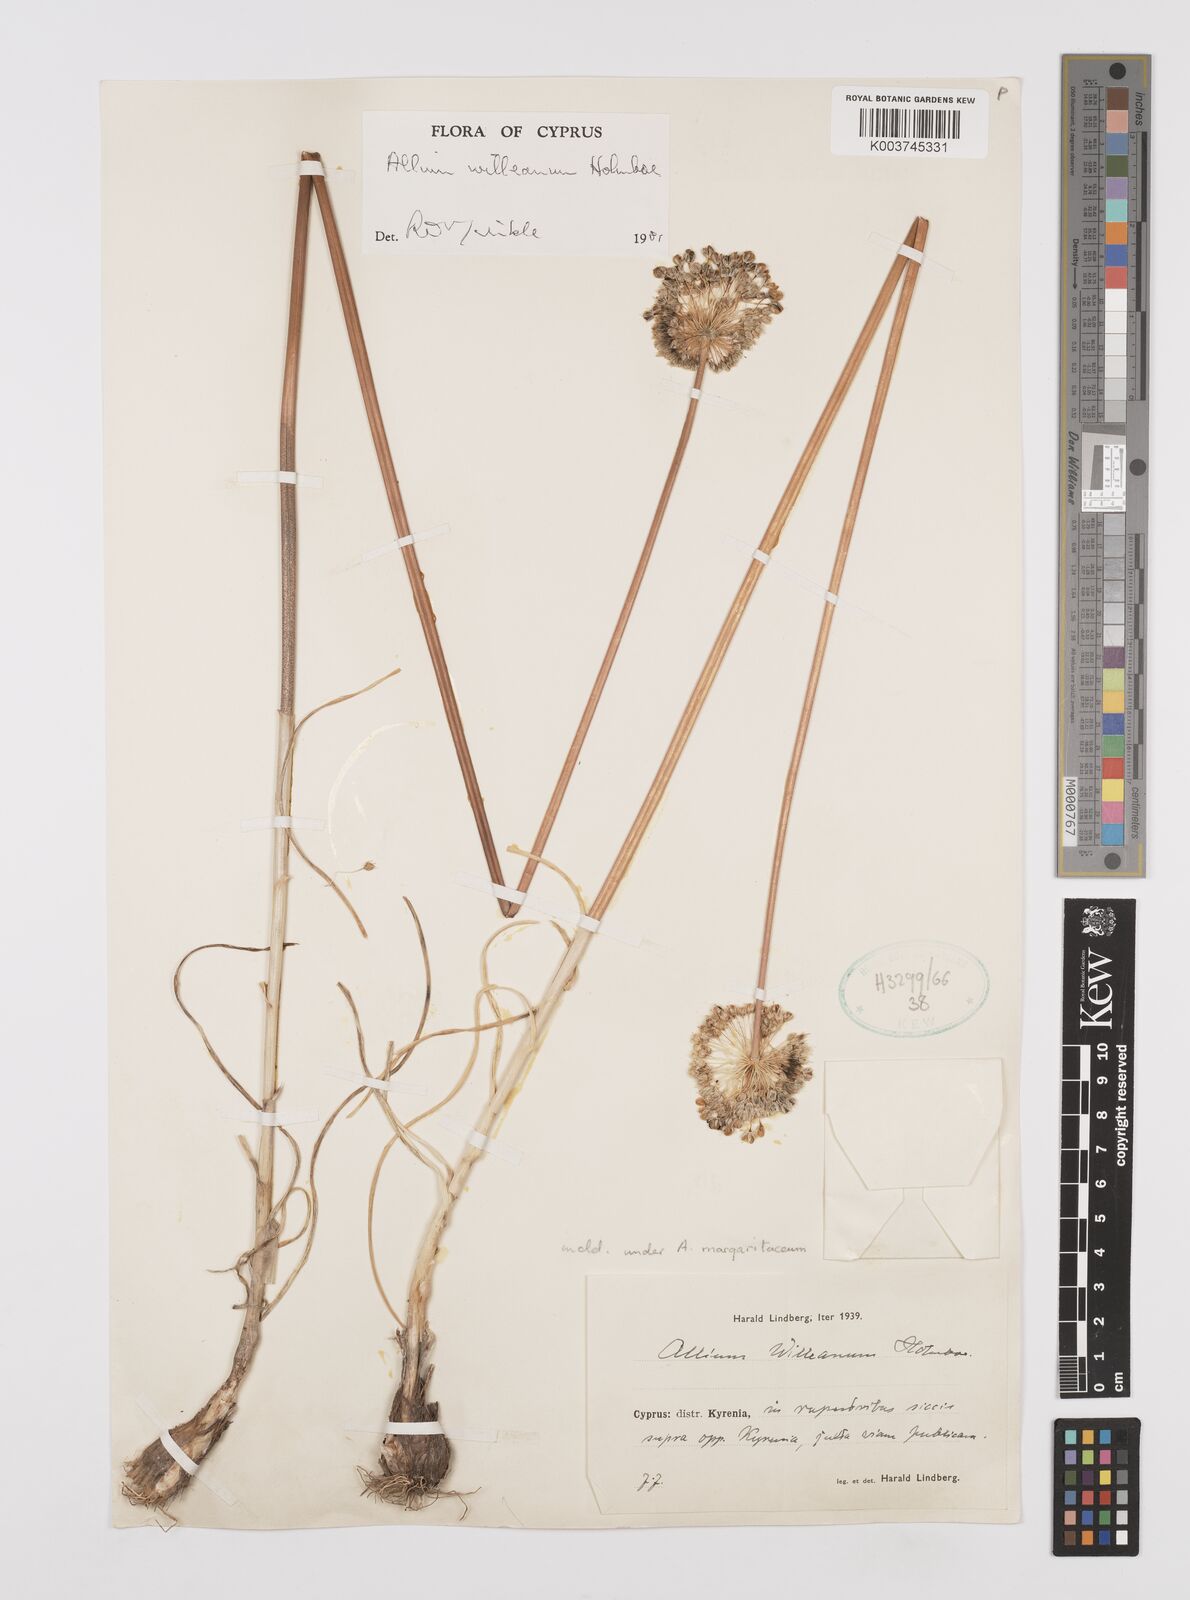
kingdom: Plantae
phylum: Tracheophyta
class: Liliopsida
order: Asparagales
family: Amaryllidaceae
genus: Allium
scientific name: Allium willeanum
